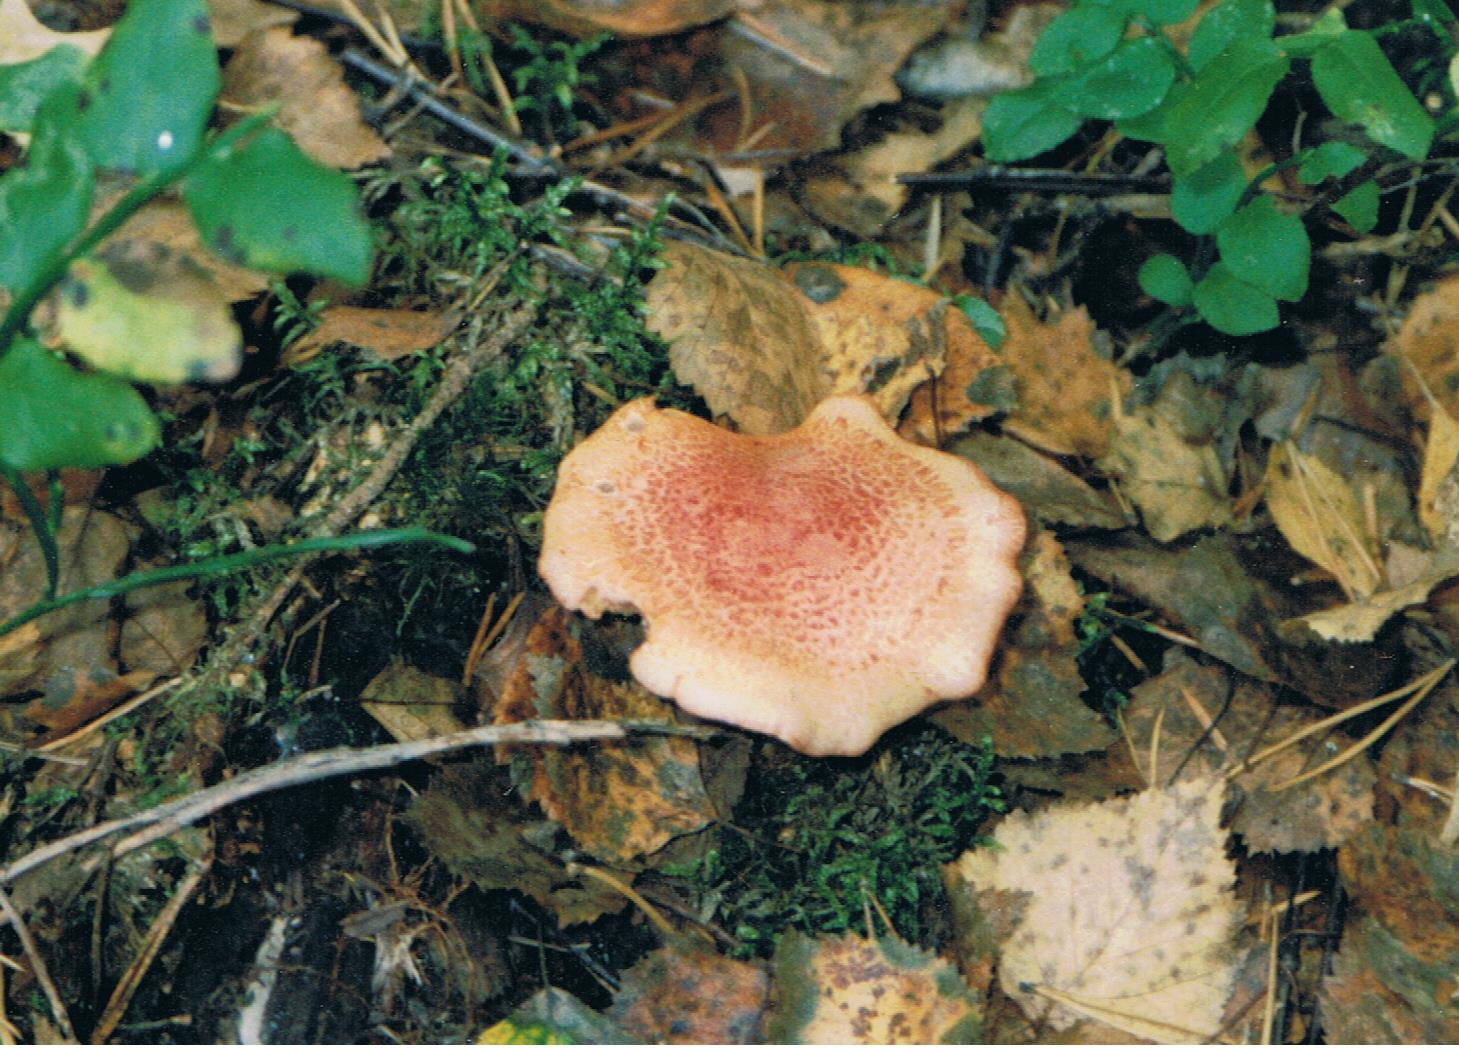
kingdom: Fungi
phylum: Basidiomycota
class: Agaricomycetes
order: Agaricales
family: Cortinariaceae
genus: Cortinarius
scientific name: Cortinarius bolaris
